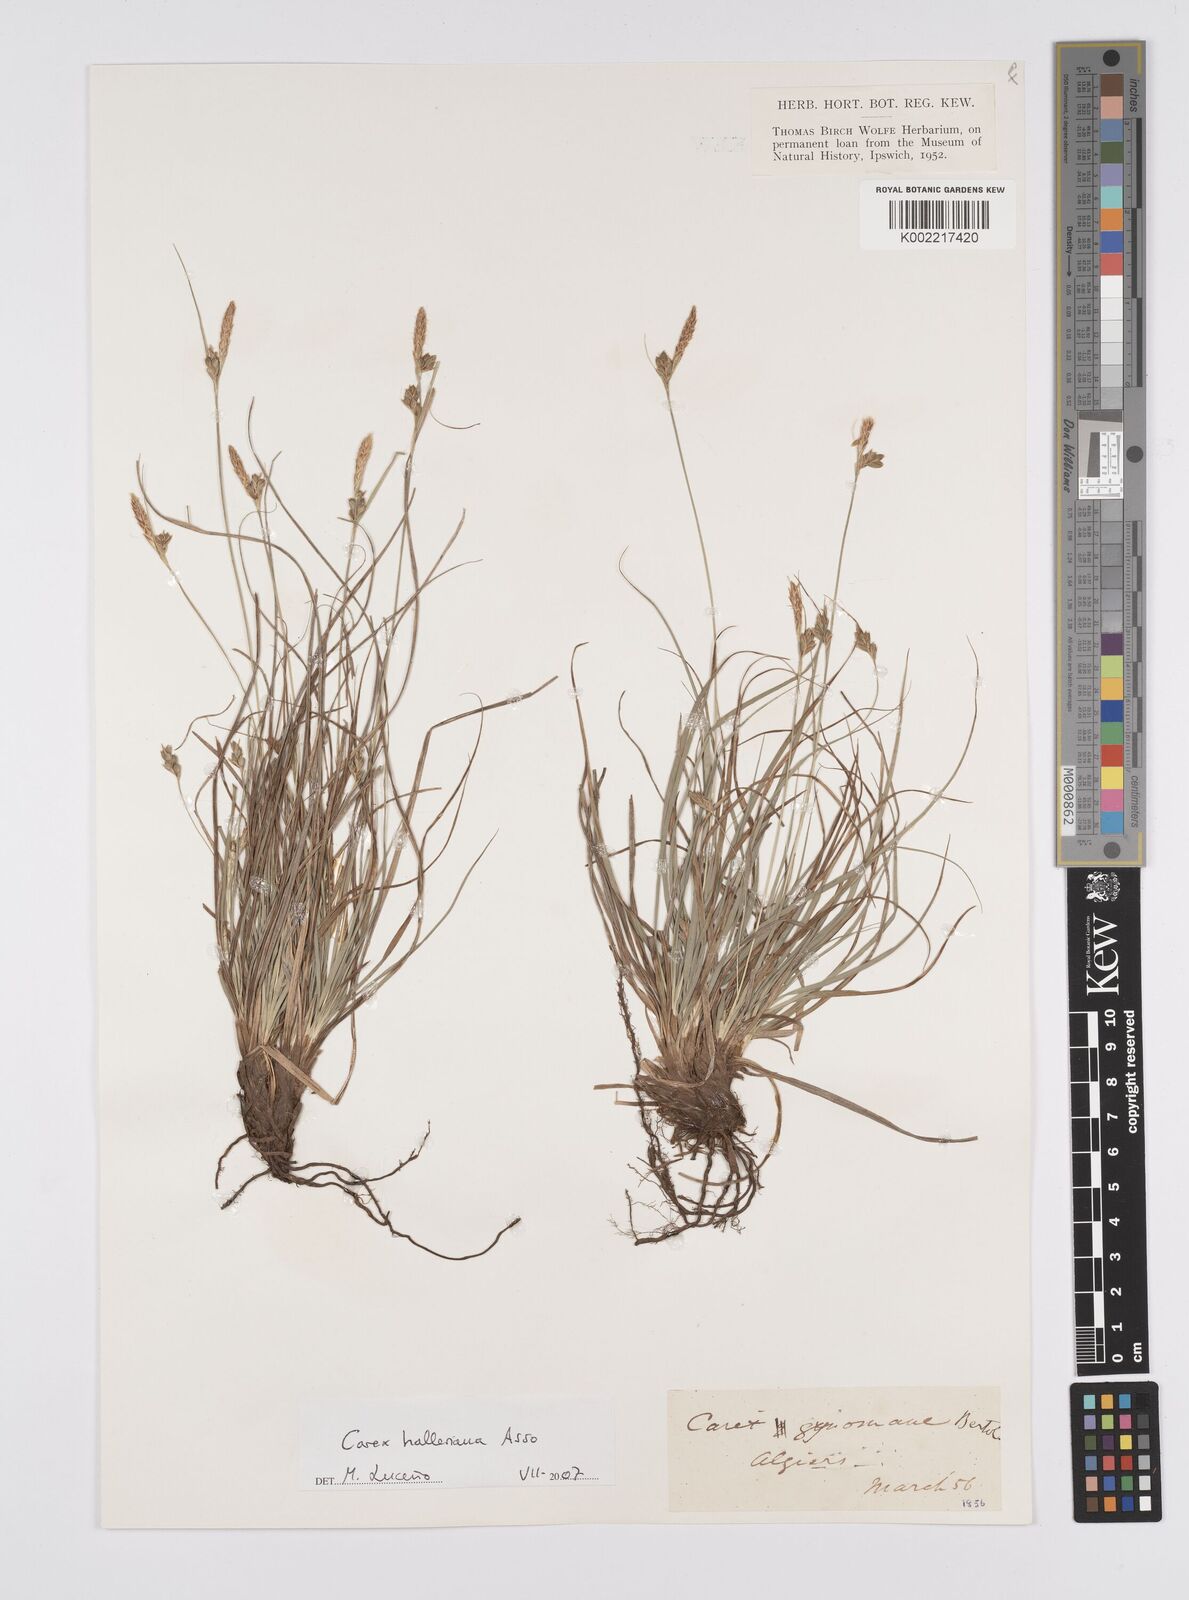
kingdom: Plantae
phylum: Tracheophyta
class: Liliopsida
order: Poales
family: Cyperaceae
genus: Carex
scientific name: Carex halleriana
